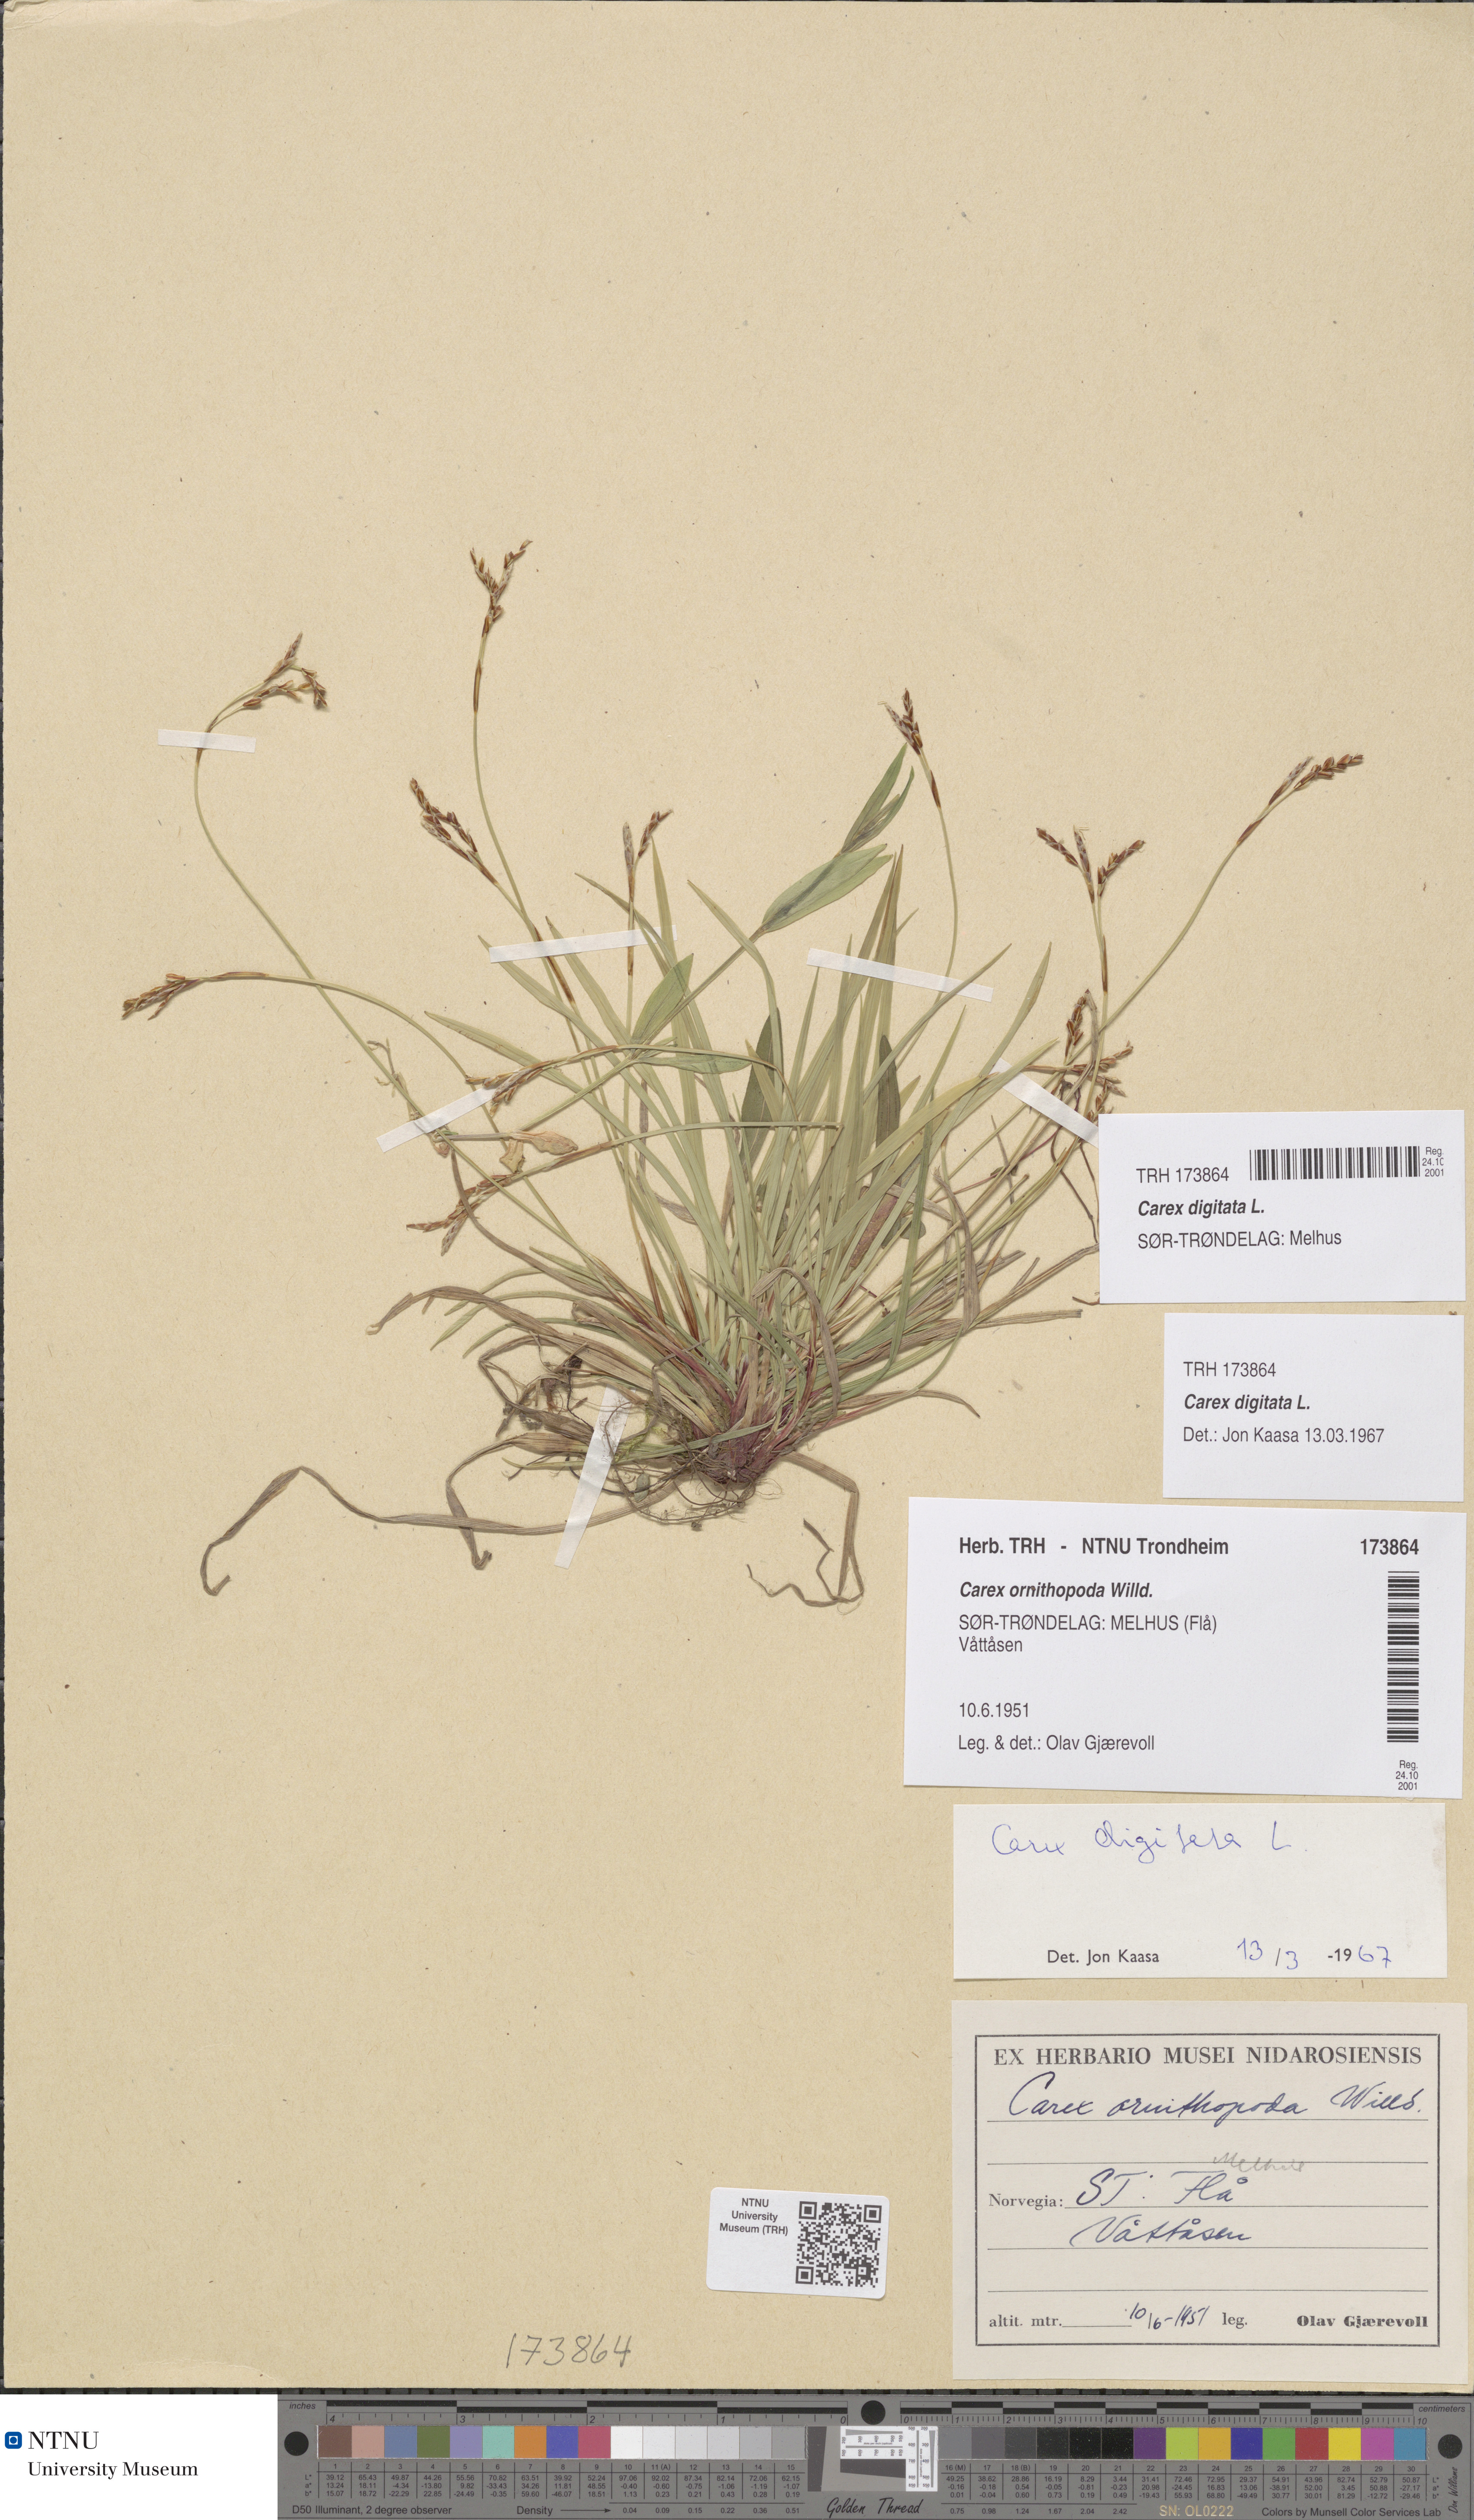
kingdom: Plantae
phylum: Tracheophyta
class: Liliopsida
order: Poales
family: Cyperaceae
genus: Carex
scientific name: Carex digitata
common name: Fingered sedge
